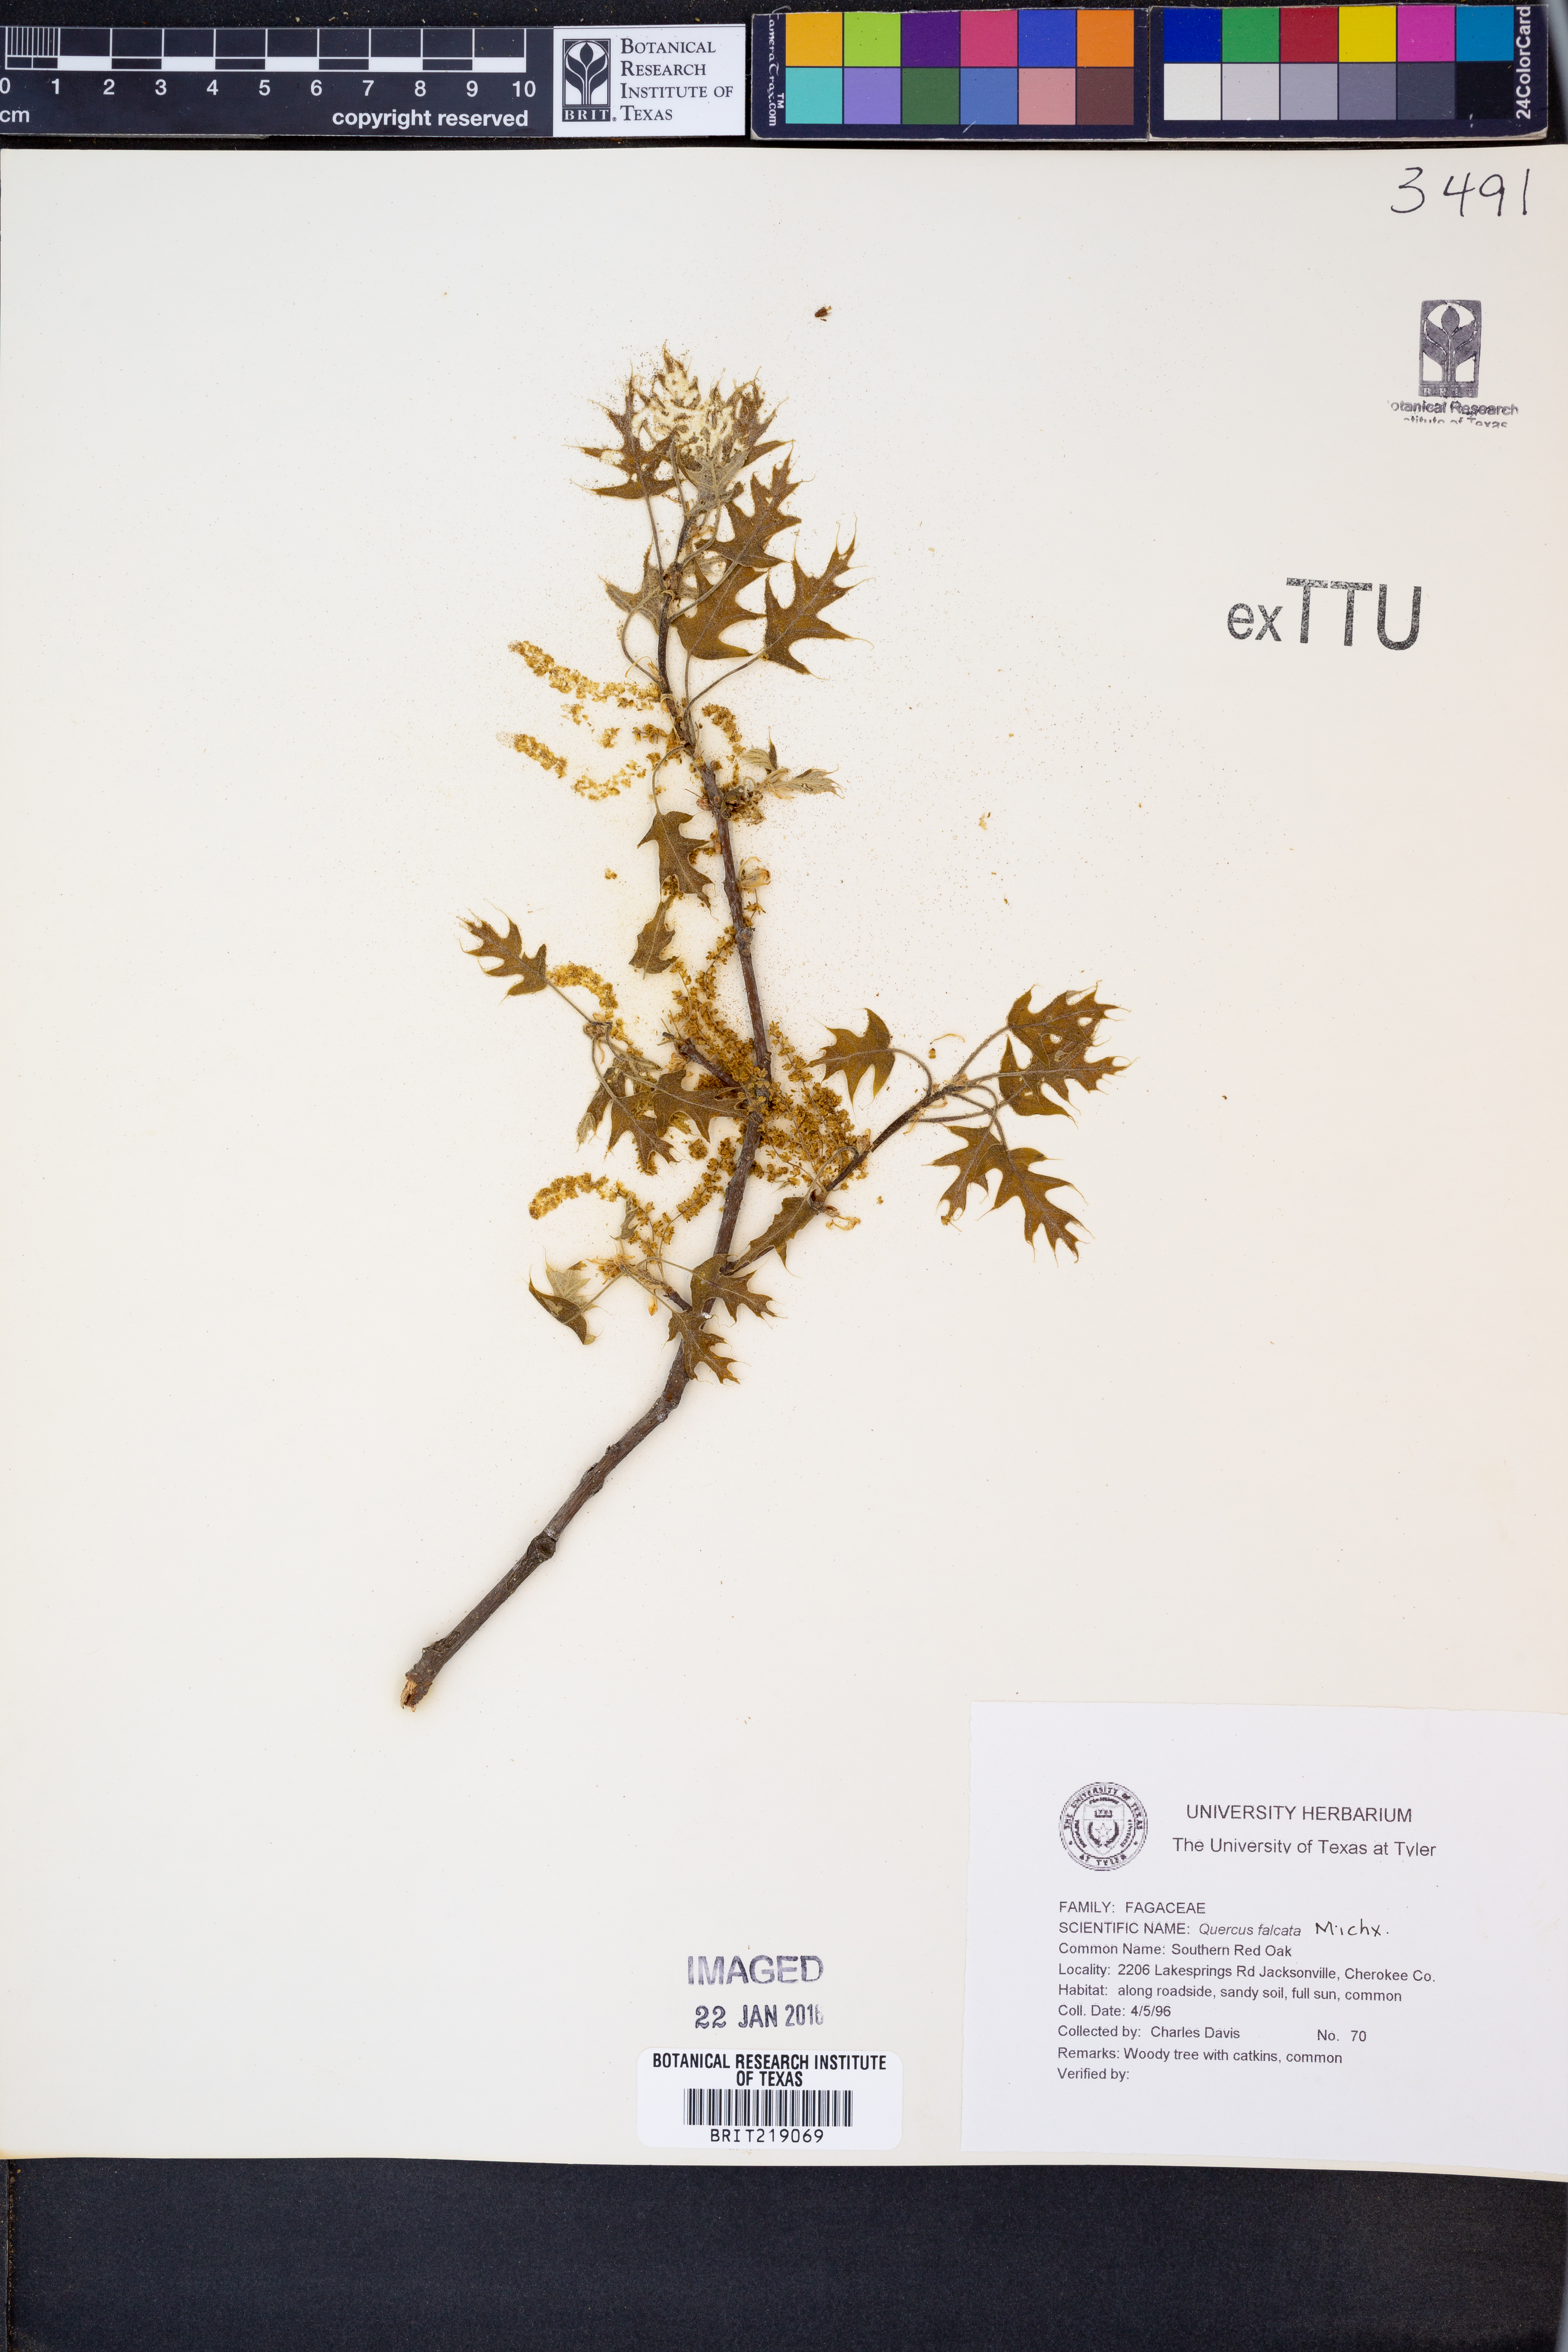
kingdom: Plantae
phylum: Tracheophyta
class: Magnoliopsida
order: Fagales
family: Fagaceae
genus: Quercus
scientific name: Quercus falcata
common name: Southern red oak
